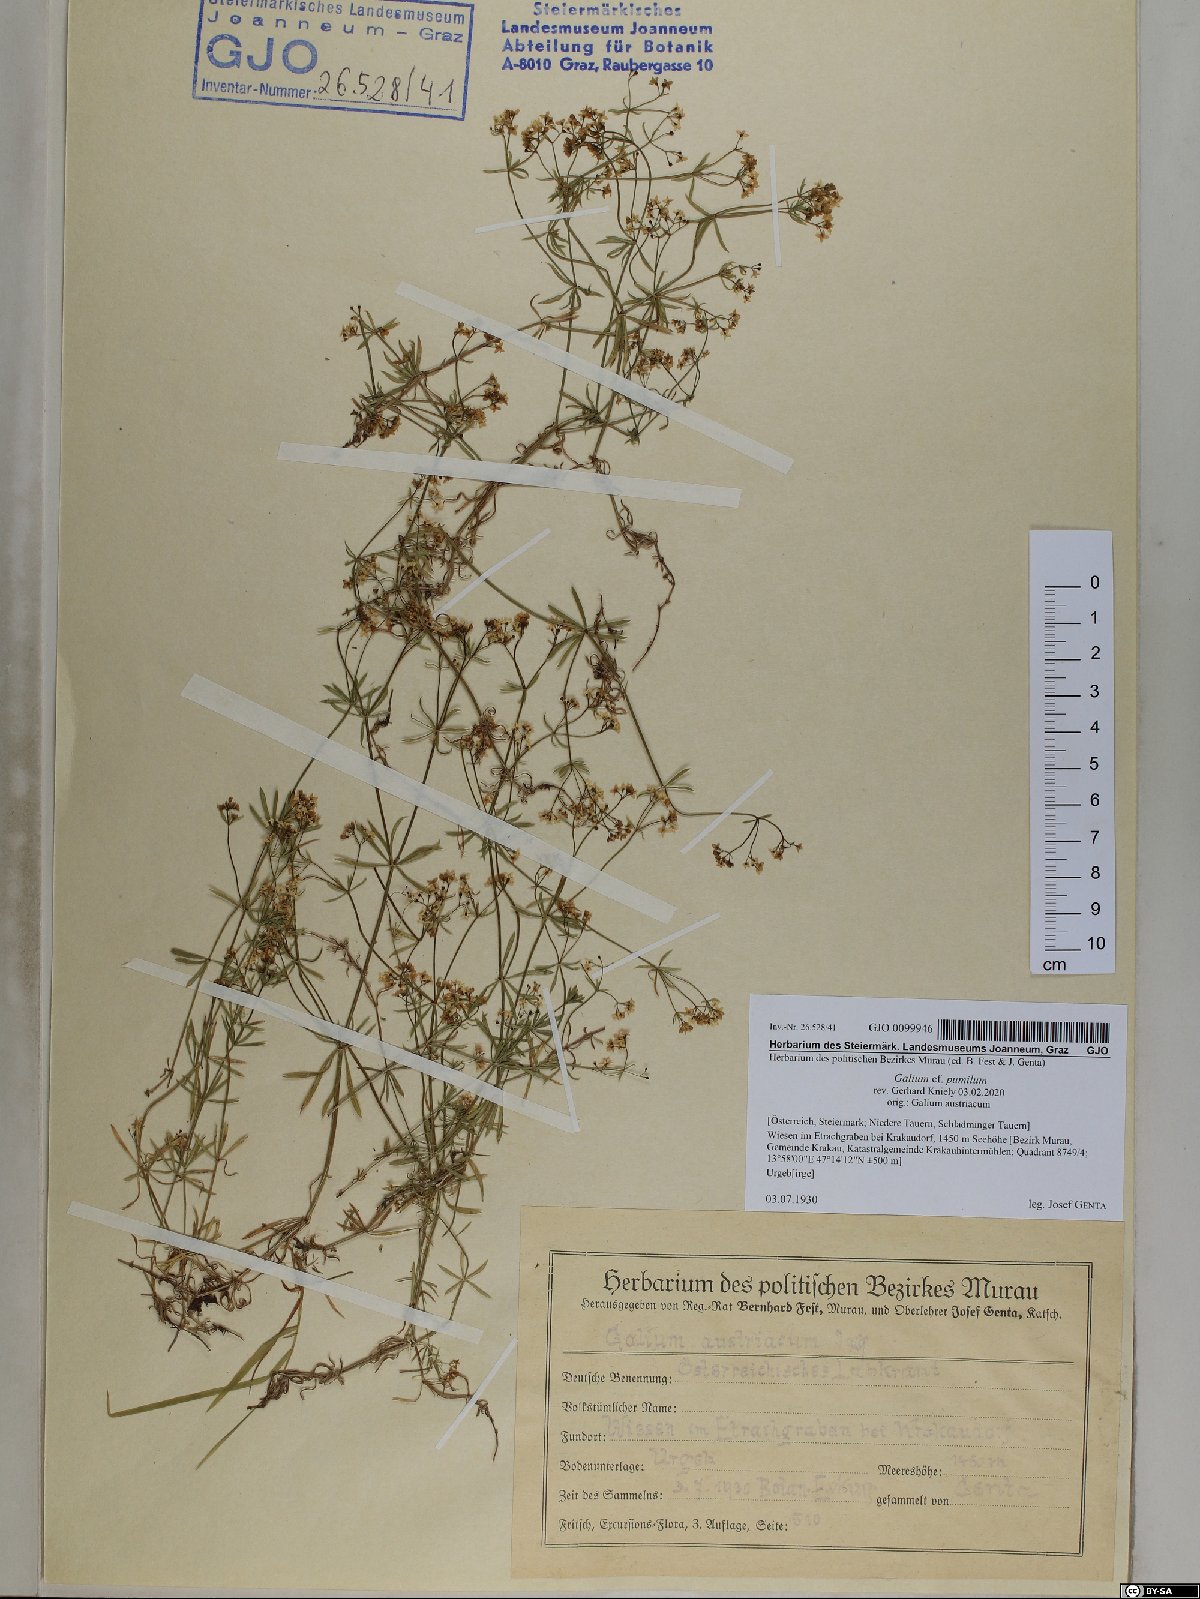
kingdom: Plantae
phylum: Tracheophyta
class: Magnoliopsida
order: Gentianales
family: Rubiaceae
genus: Galium
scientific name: Galium pumilum
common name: Slender bedstraw
